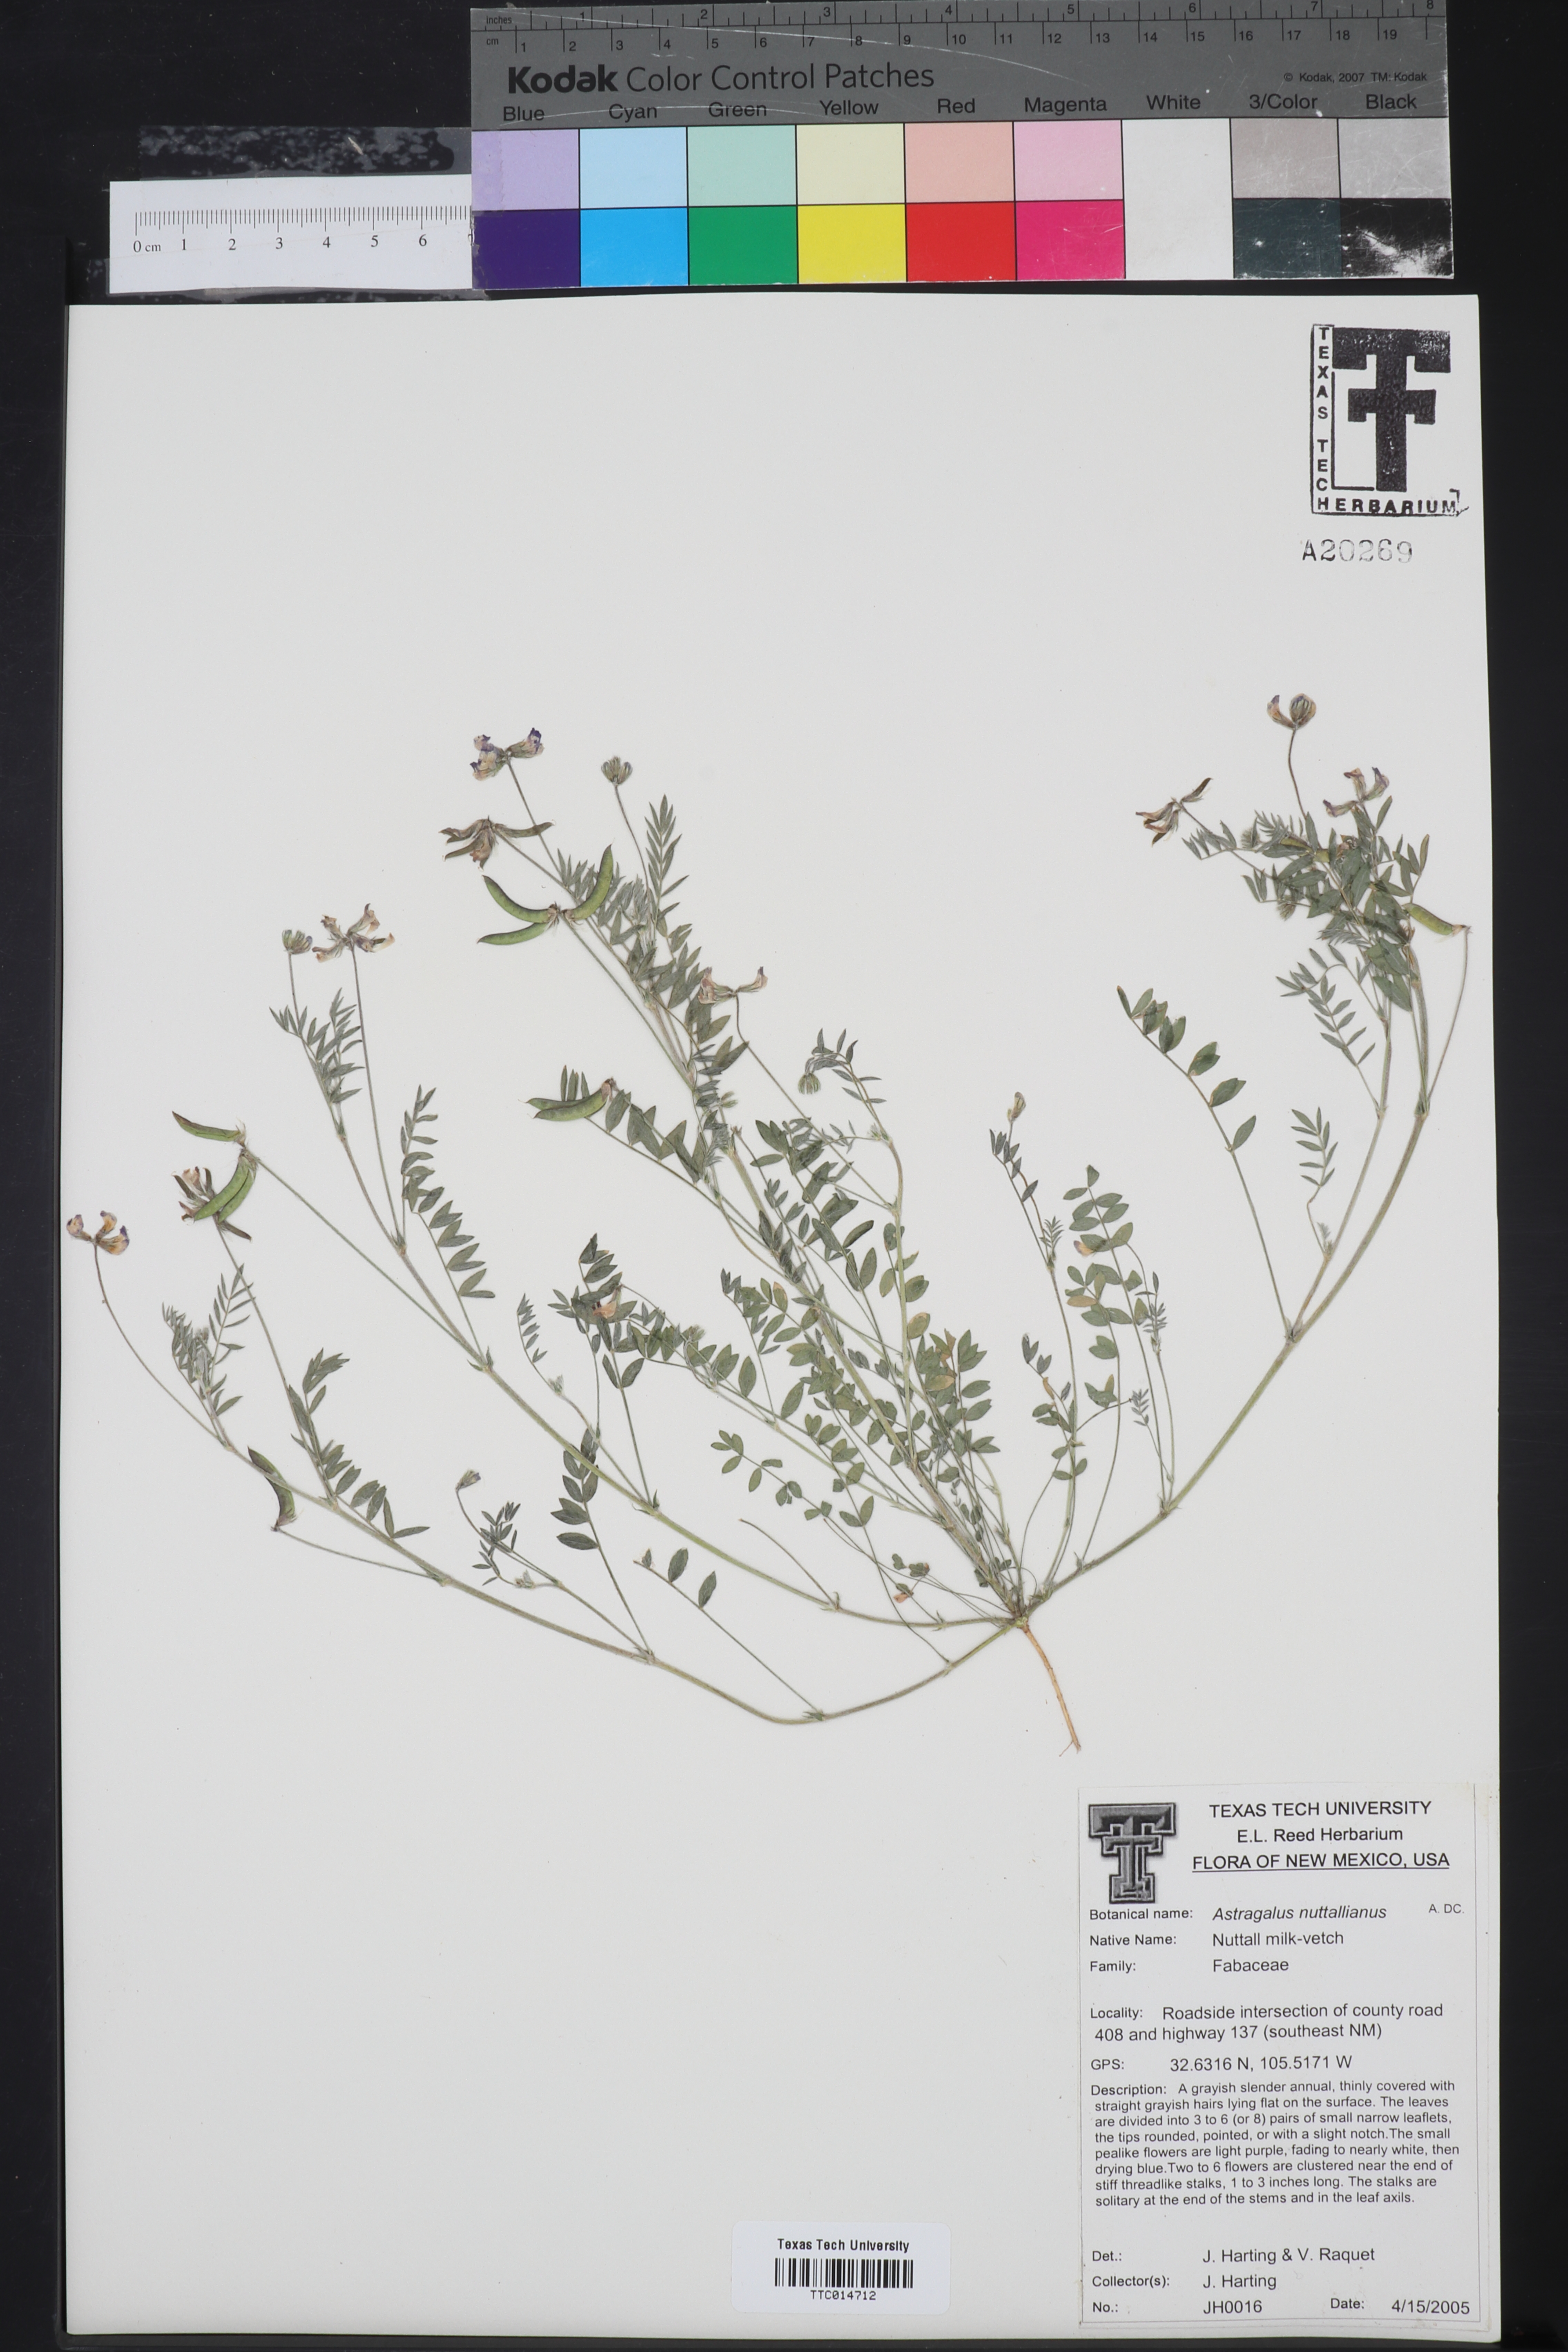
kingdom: Plantae
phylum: Tracheophyta
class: Magnoliopsida
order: Fabales
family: Fabaceae
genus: Astragalus
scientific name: Astragalus nuttallianus
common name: Smallflowered milkvetch
